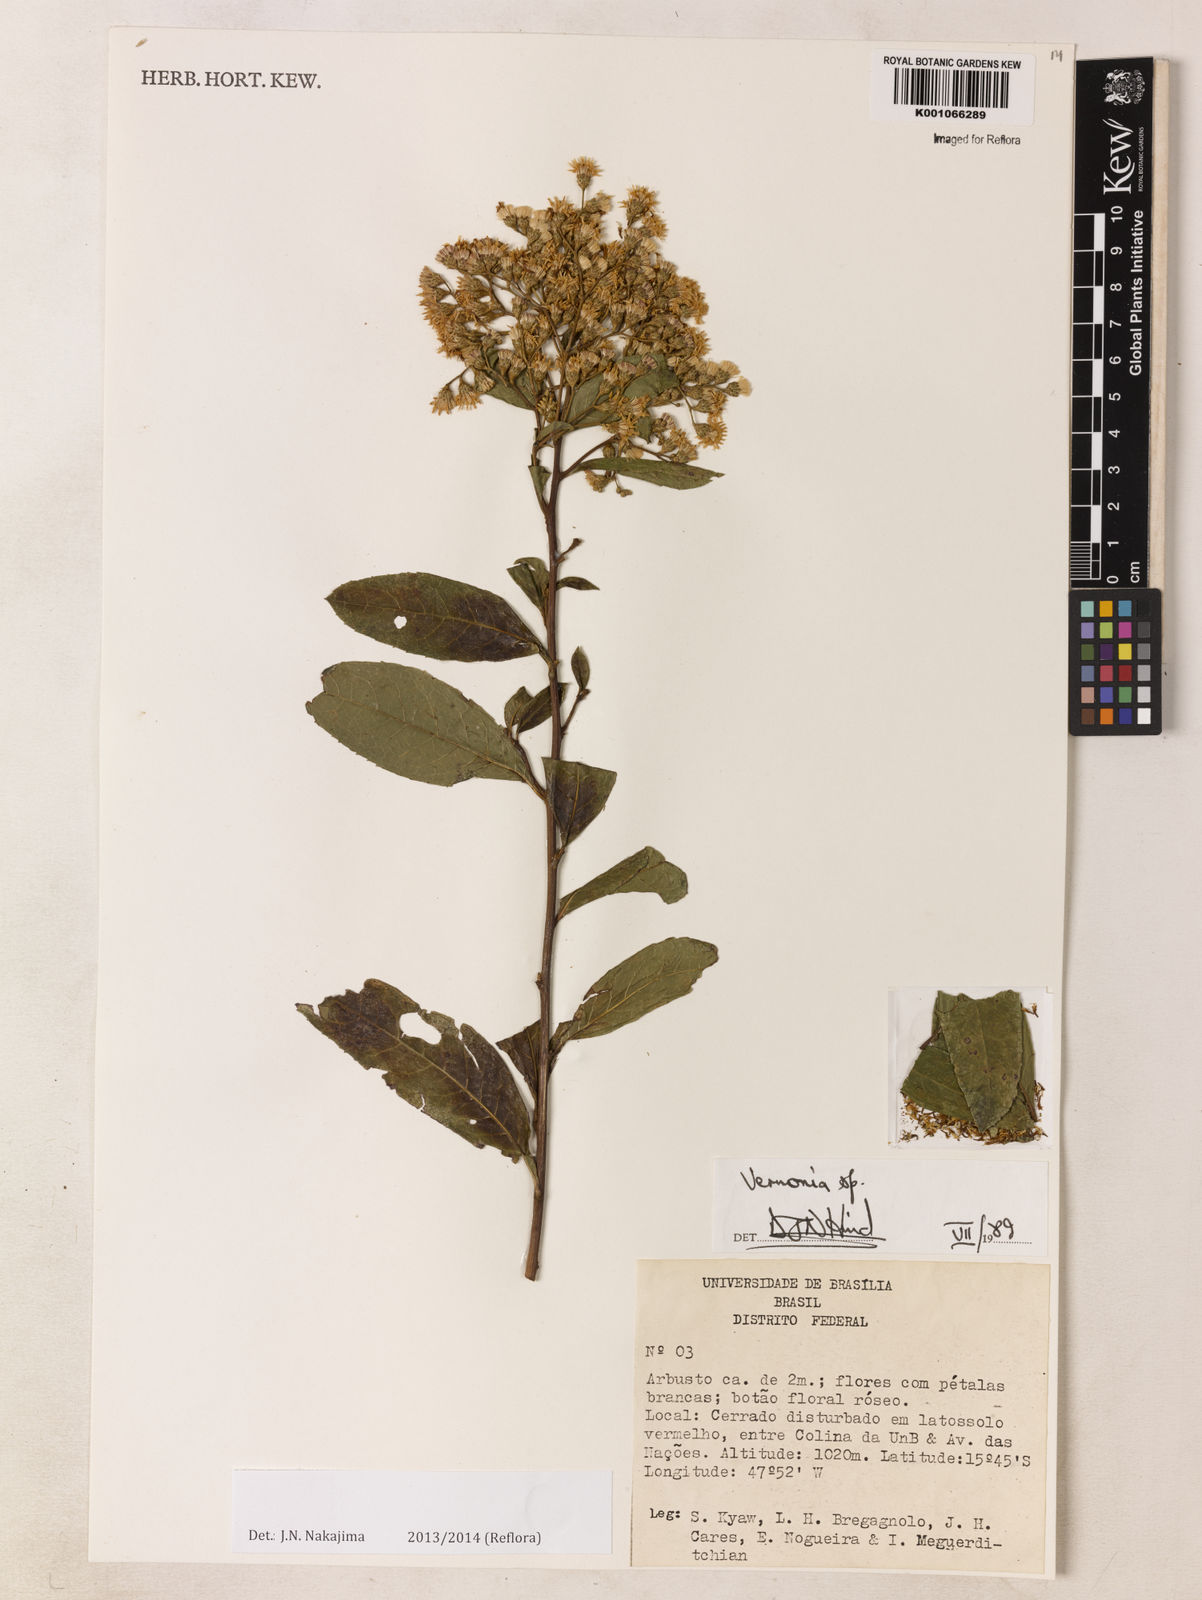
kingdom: Plantae
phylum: Tracheophyta
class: Magnoliopsida
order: Asterales
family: Asteraceae
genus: Vernonanthura
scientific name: Vernonanthura subverticillata
